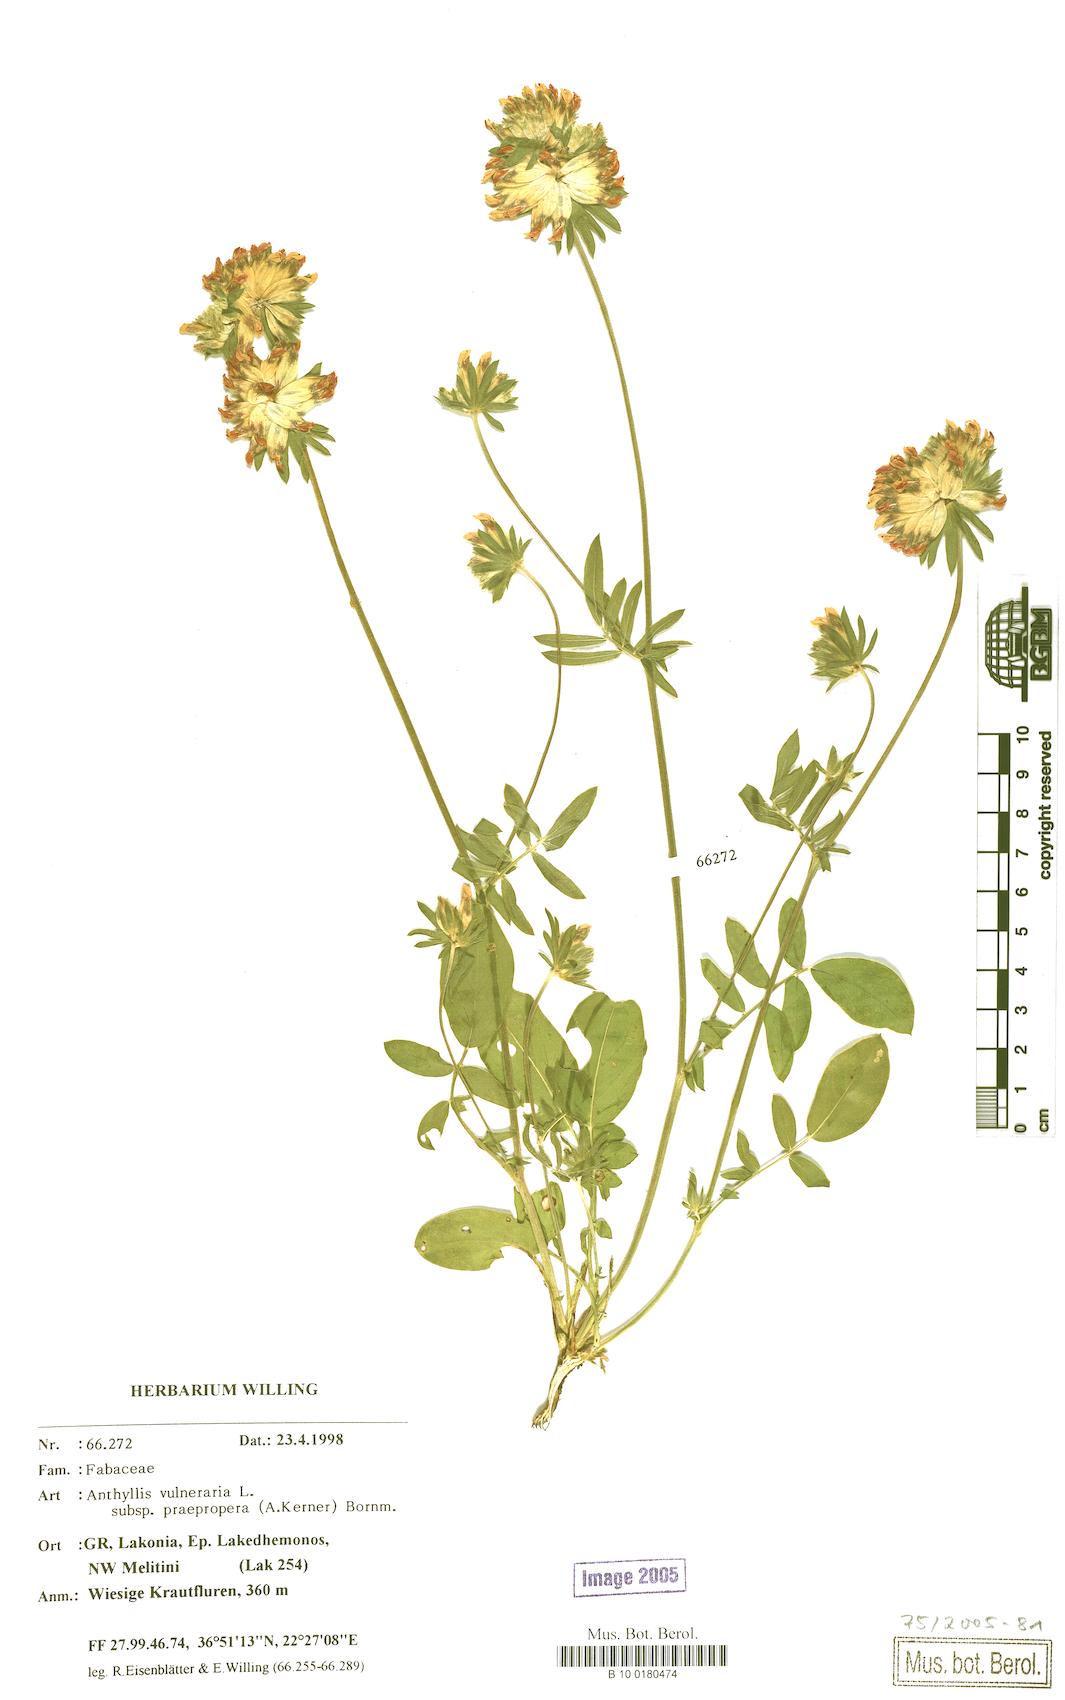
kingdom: Plantae
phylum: Tracheophyta
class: Magnoliopsida
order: Fabales
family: Fabaceae
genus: Anthyllis
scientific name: Anthyllis vulneraria
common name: Kidney vetch
